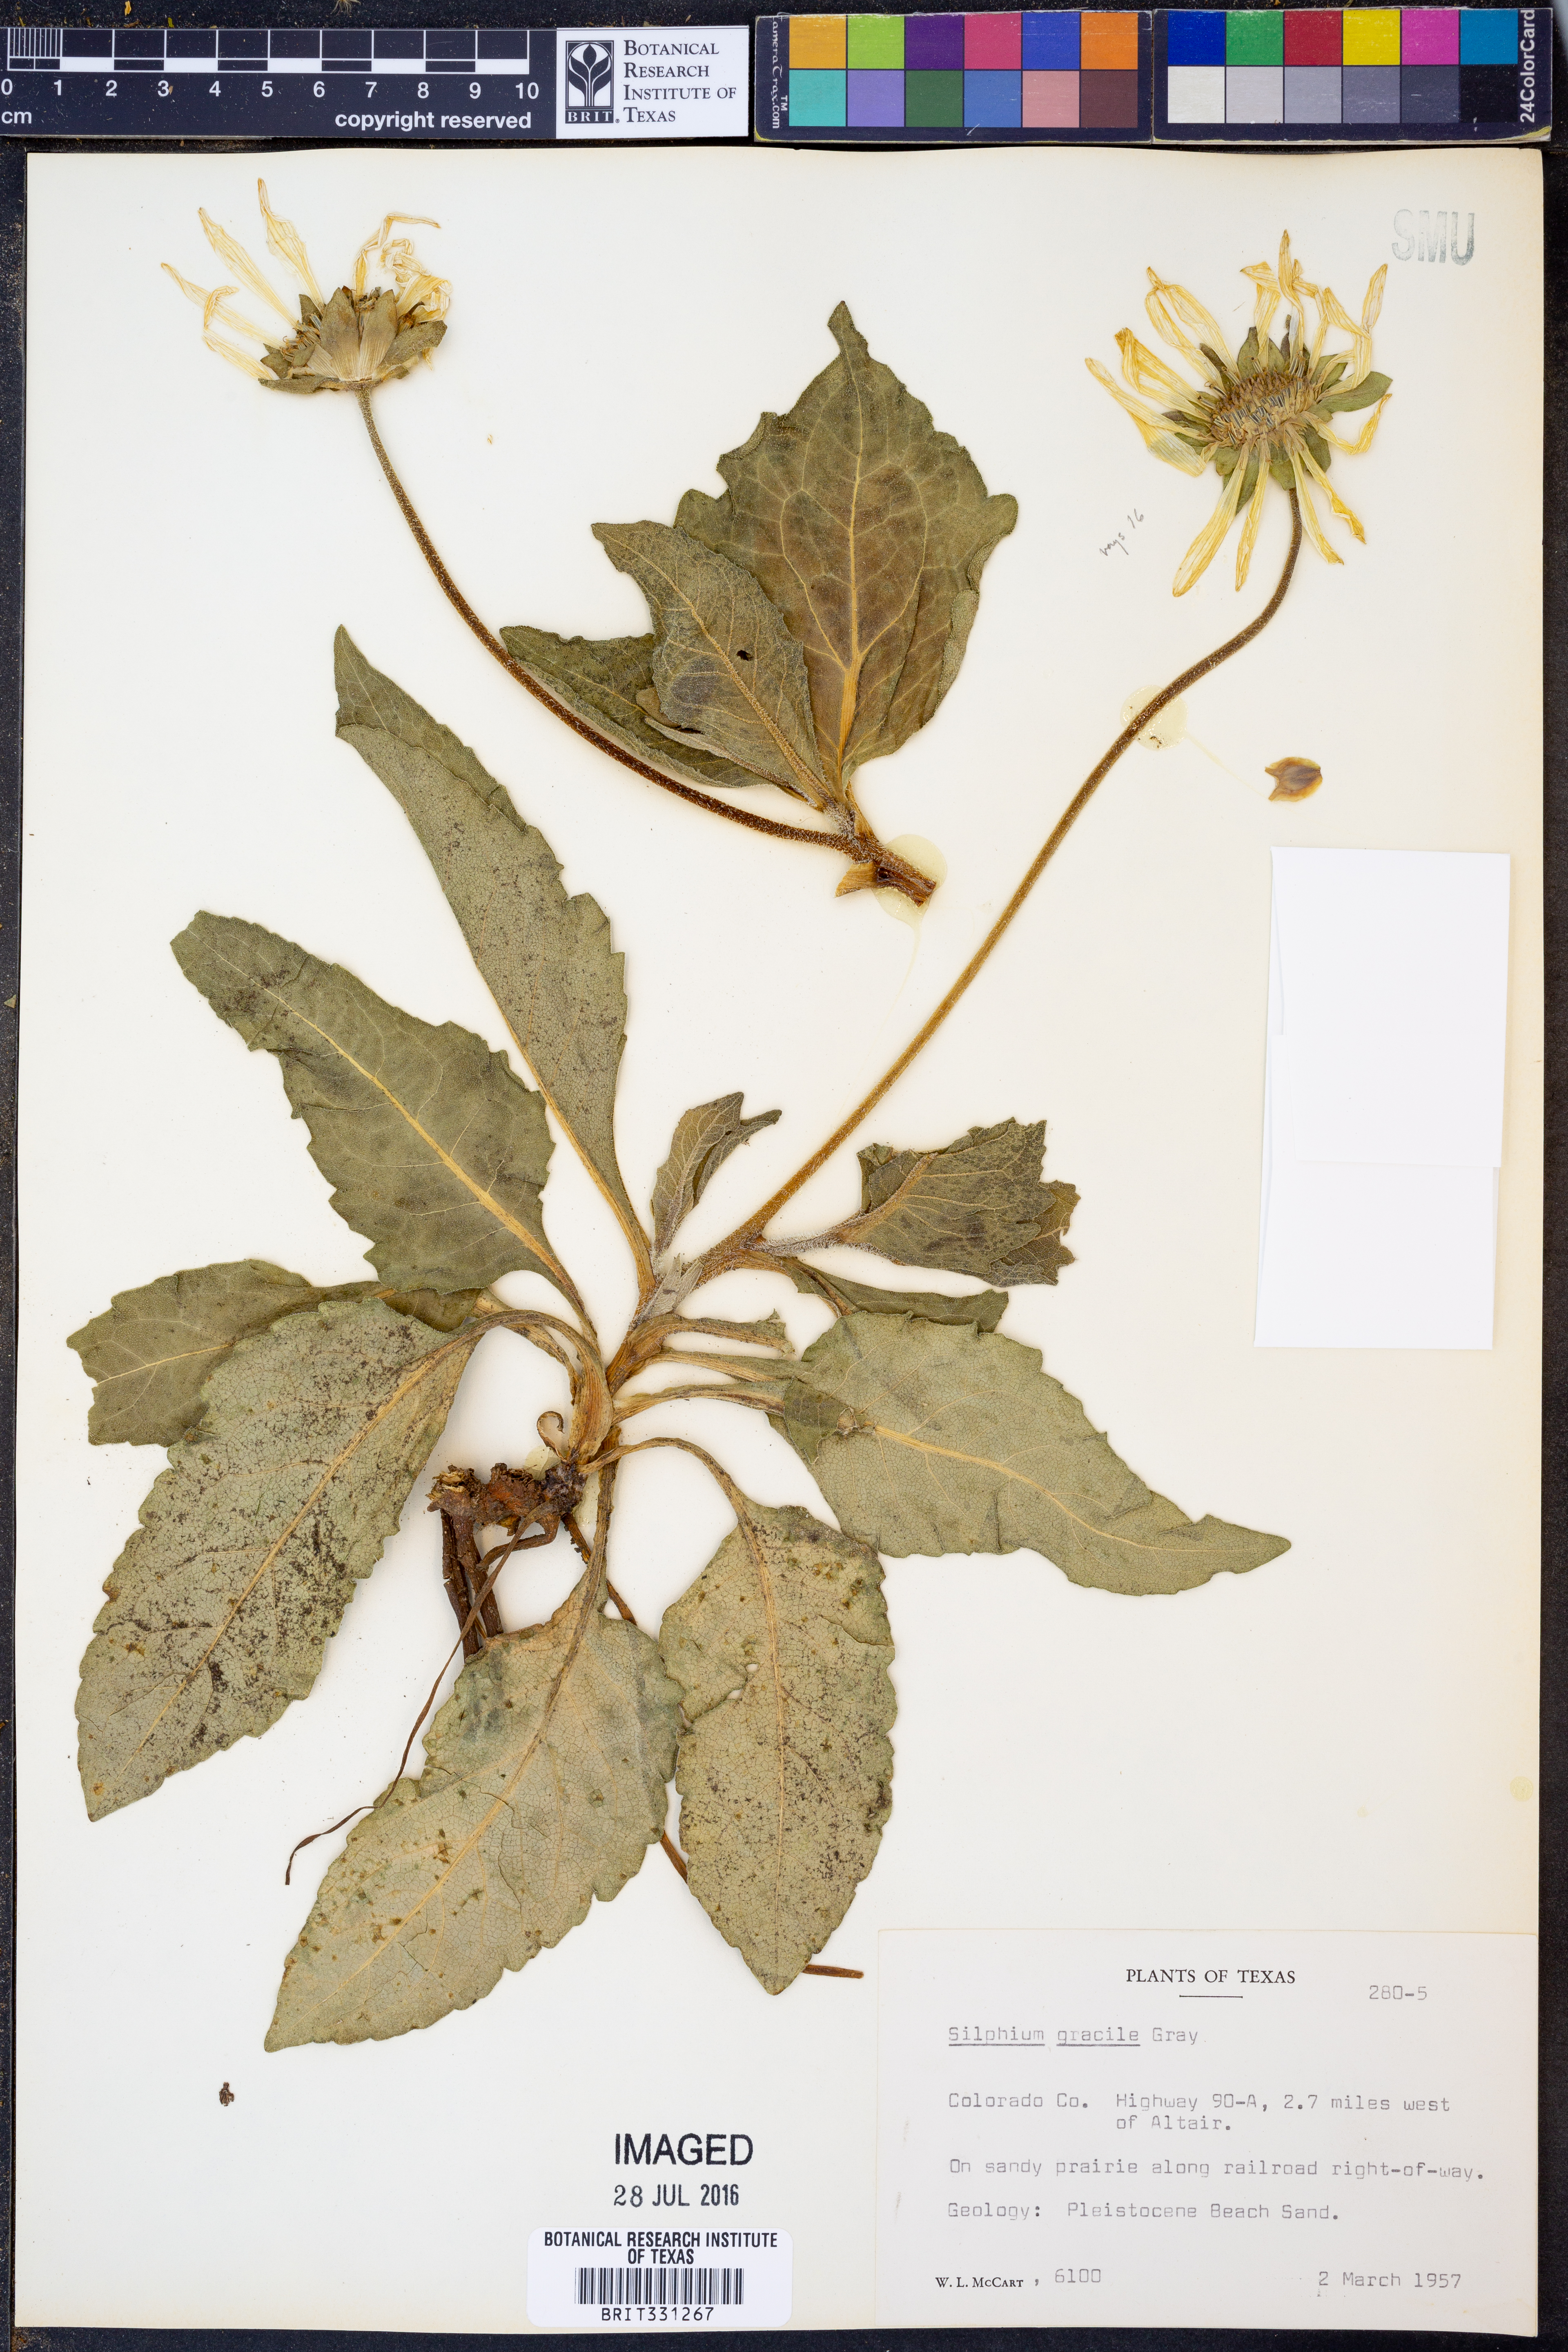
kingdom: Plantae
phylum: Tracheophyta
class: Magnoliopsida
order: Asterales
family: Asteraceae
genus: Silphium
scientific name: Silphium radula
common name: Roughleaf rosinweed
